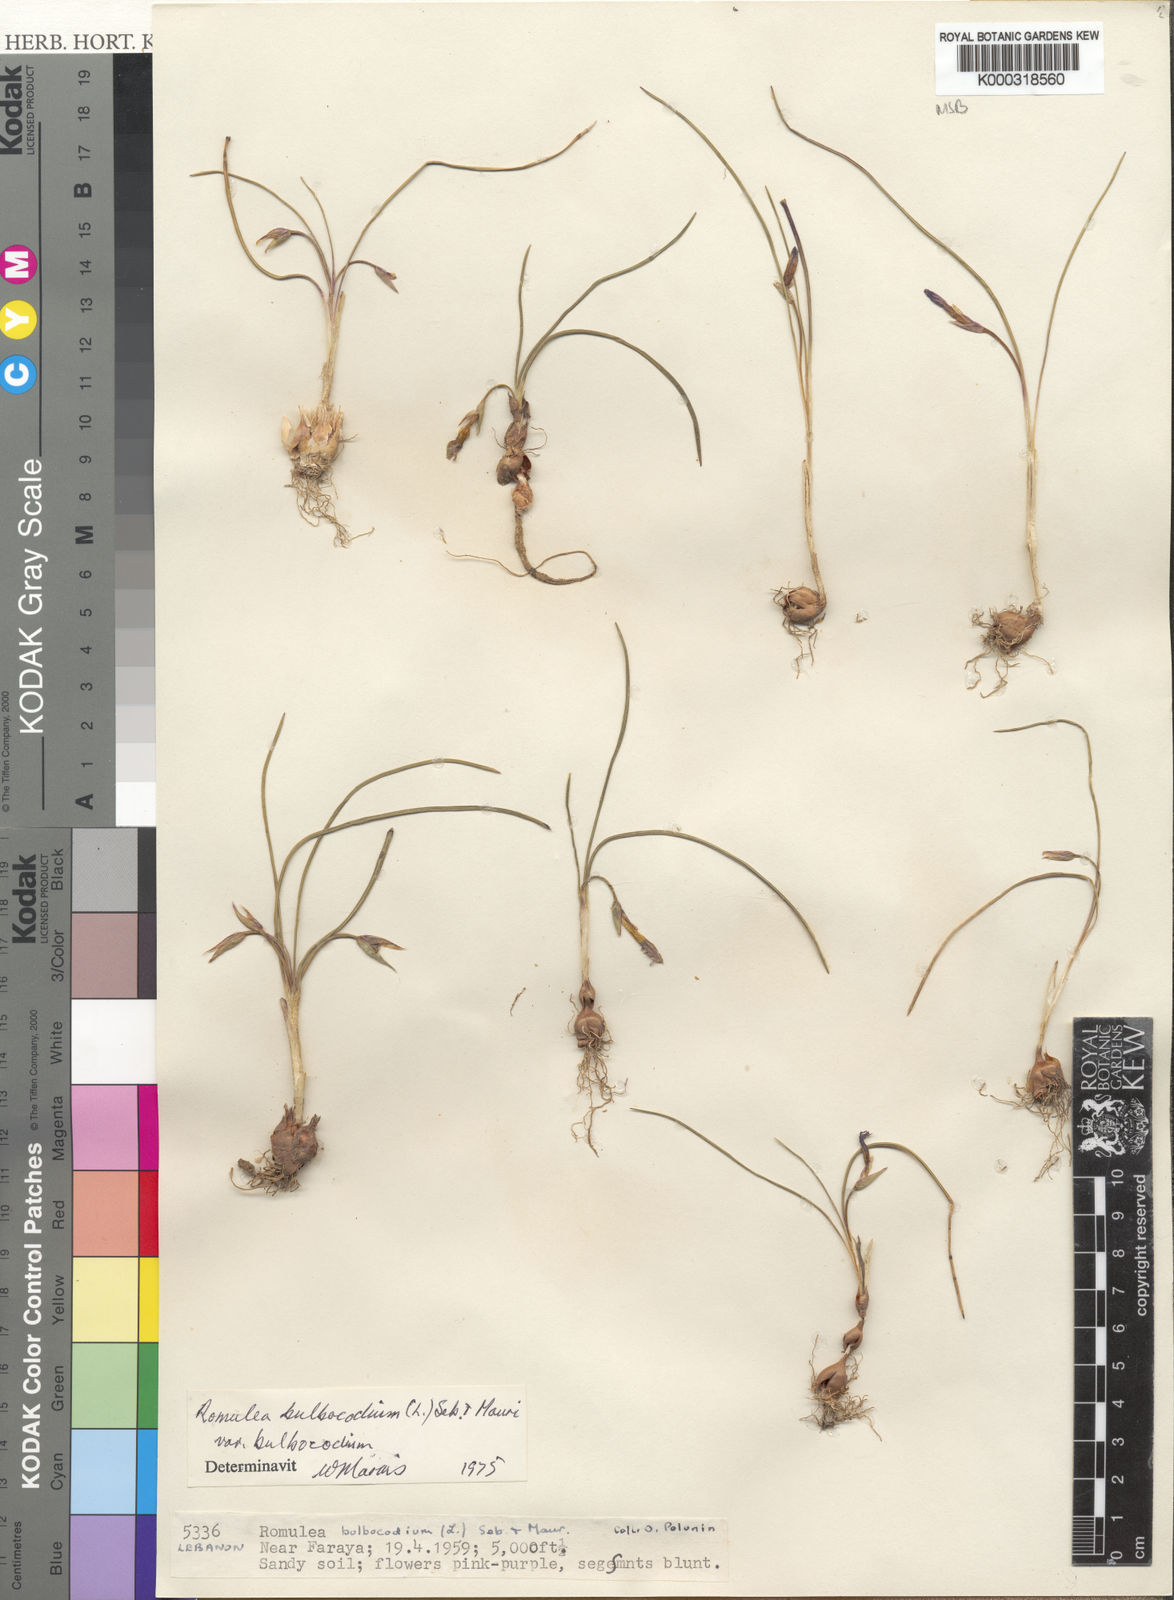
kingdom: Plantae
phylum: Tracheophyta
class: Liliopsida
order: Asparagales
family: Iridaceae
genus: Romulea
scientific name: Romulea bulbocodium
